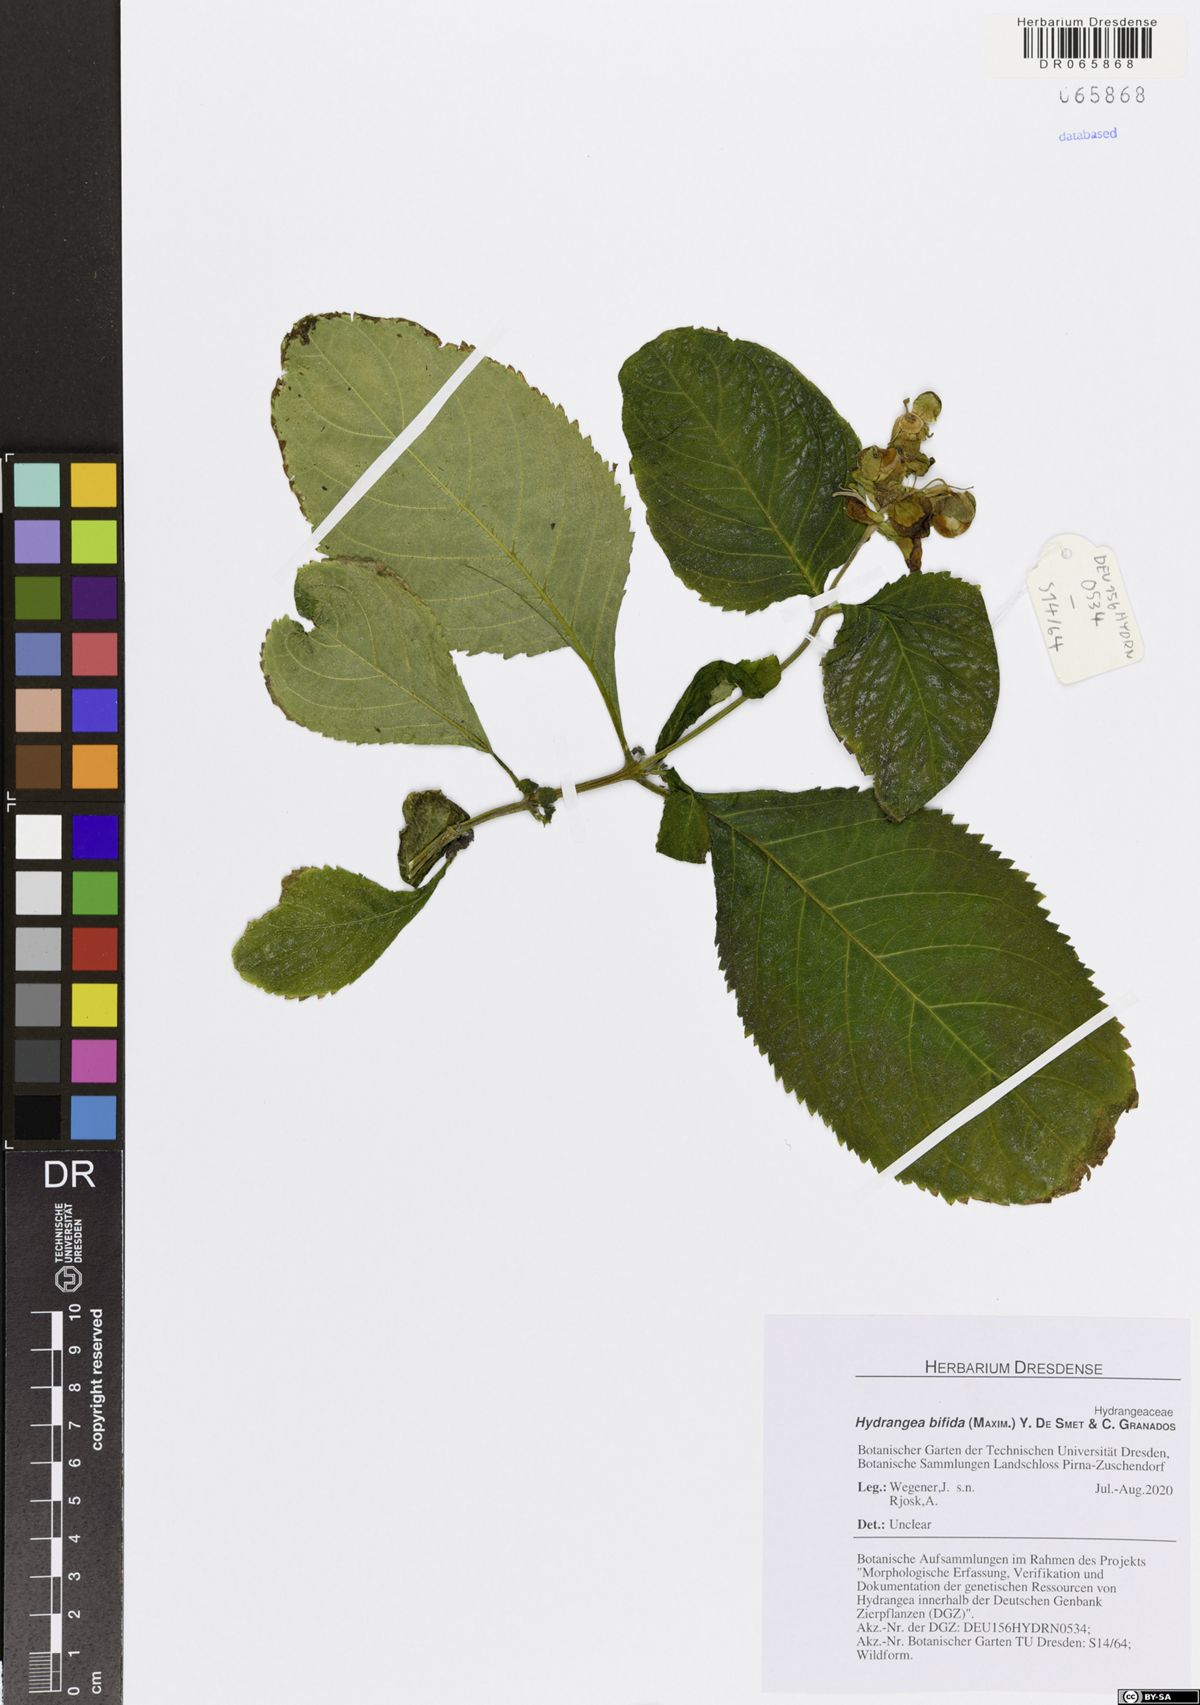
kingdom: Plantae
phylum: Tracheophyta
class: Magnoliopsida
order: Cornales
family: Hydrangeaceae
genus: Hydrangea
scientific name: Hydrangea bifida
